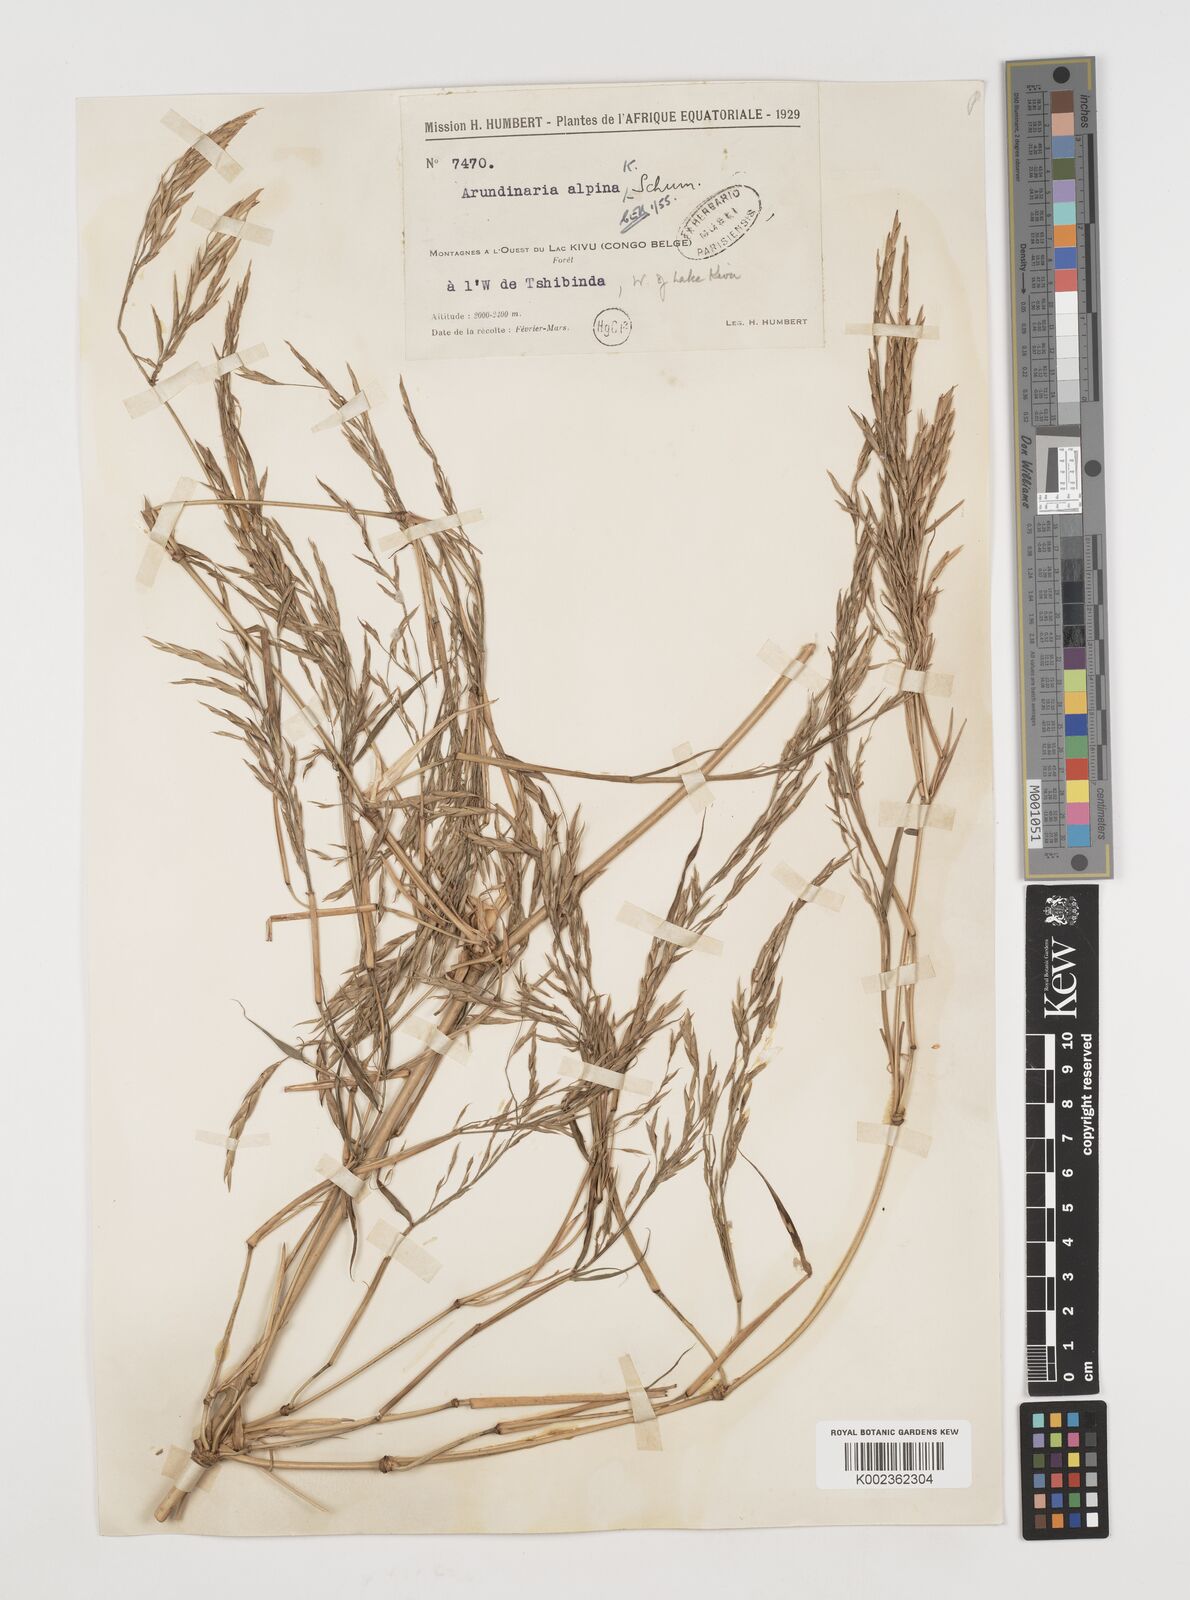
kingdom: Plantae
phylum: Tracheophyta
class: Liliopsida
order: Poales
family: Poaceae
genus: Oldeania
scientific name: Oldeania alpina
